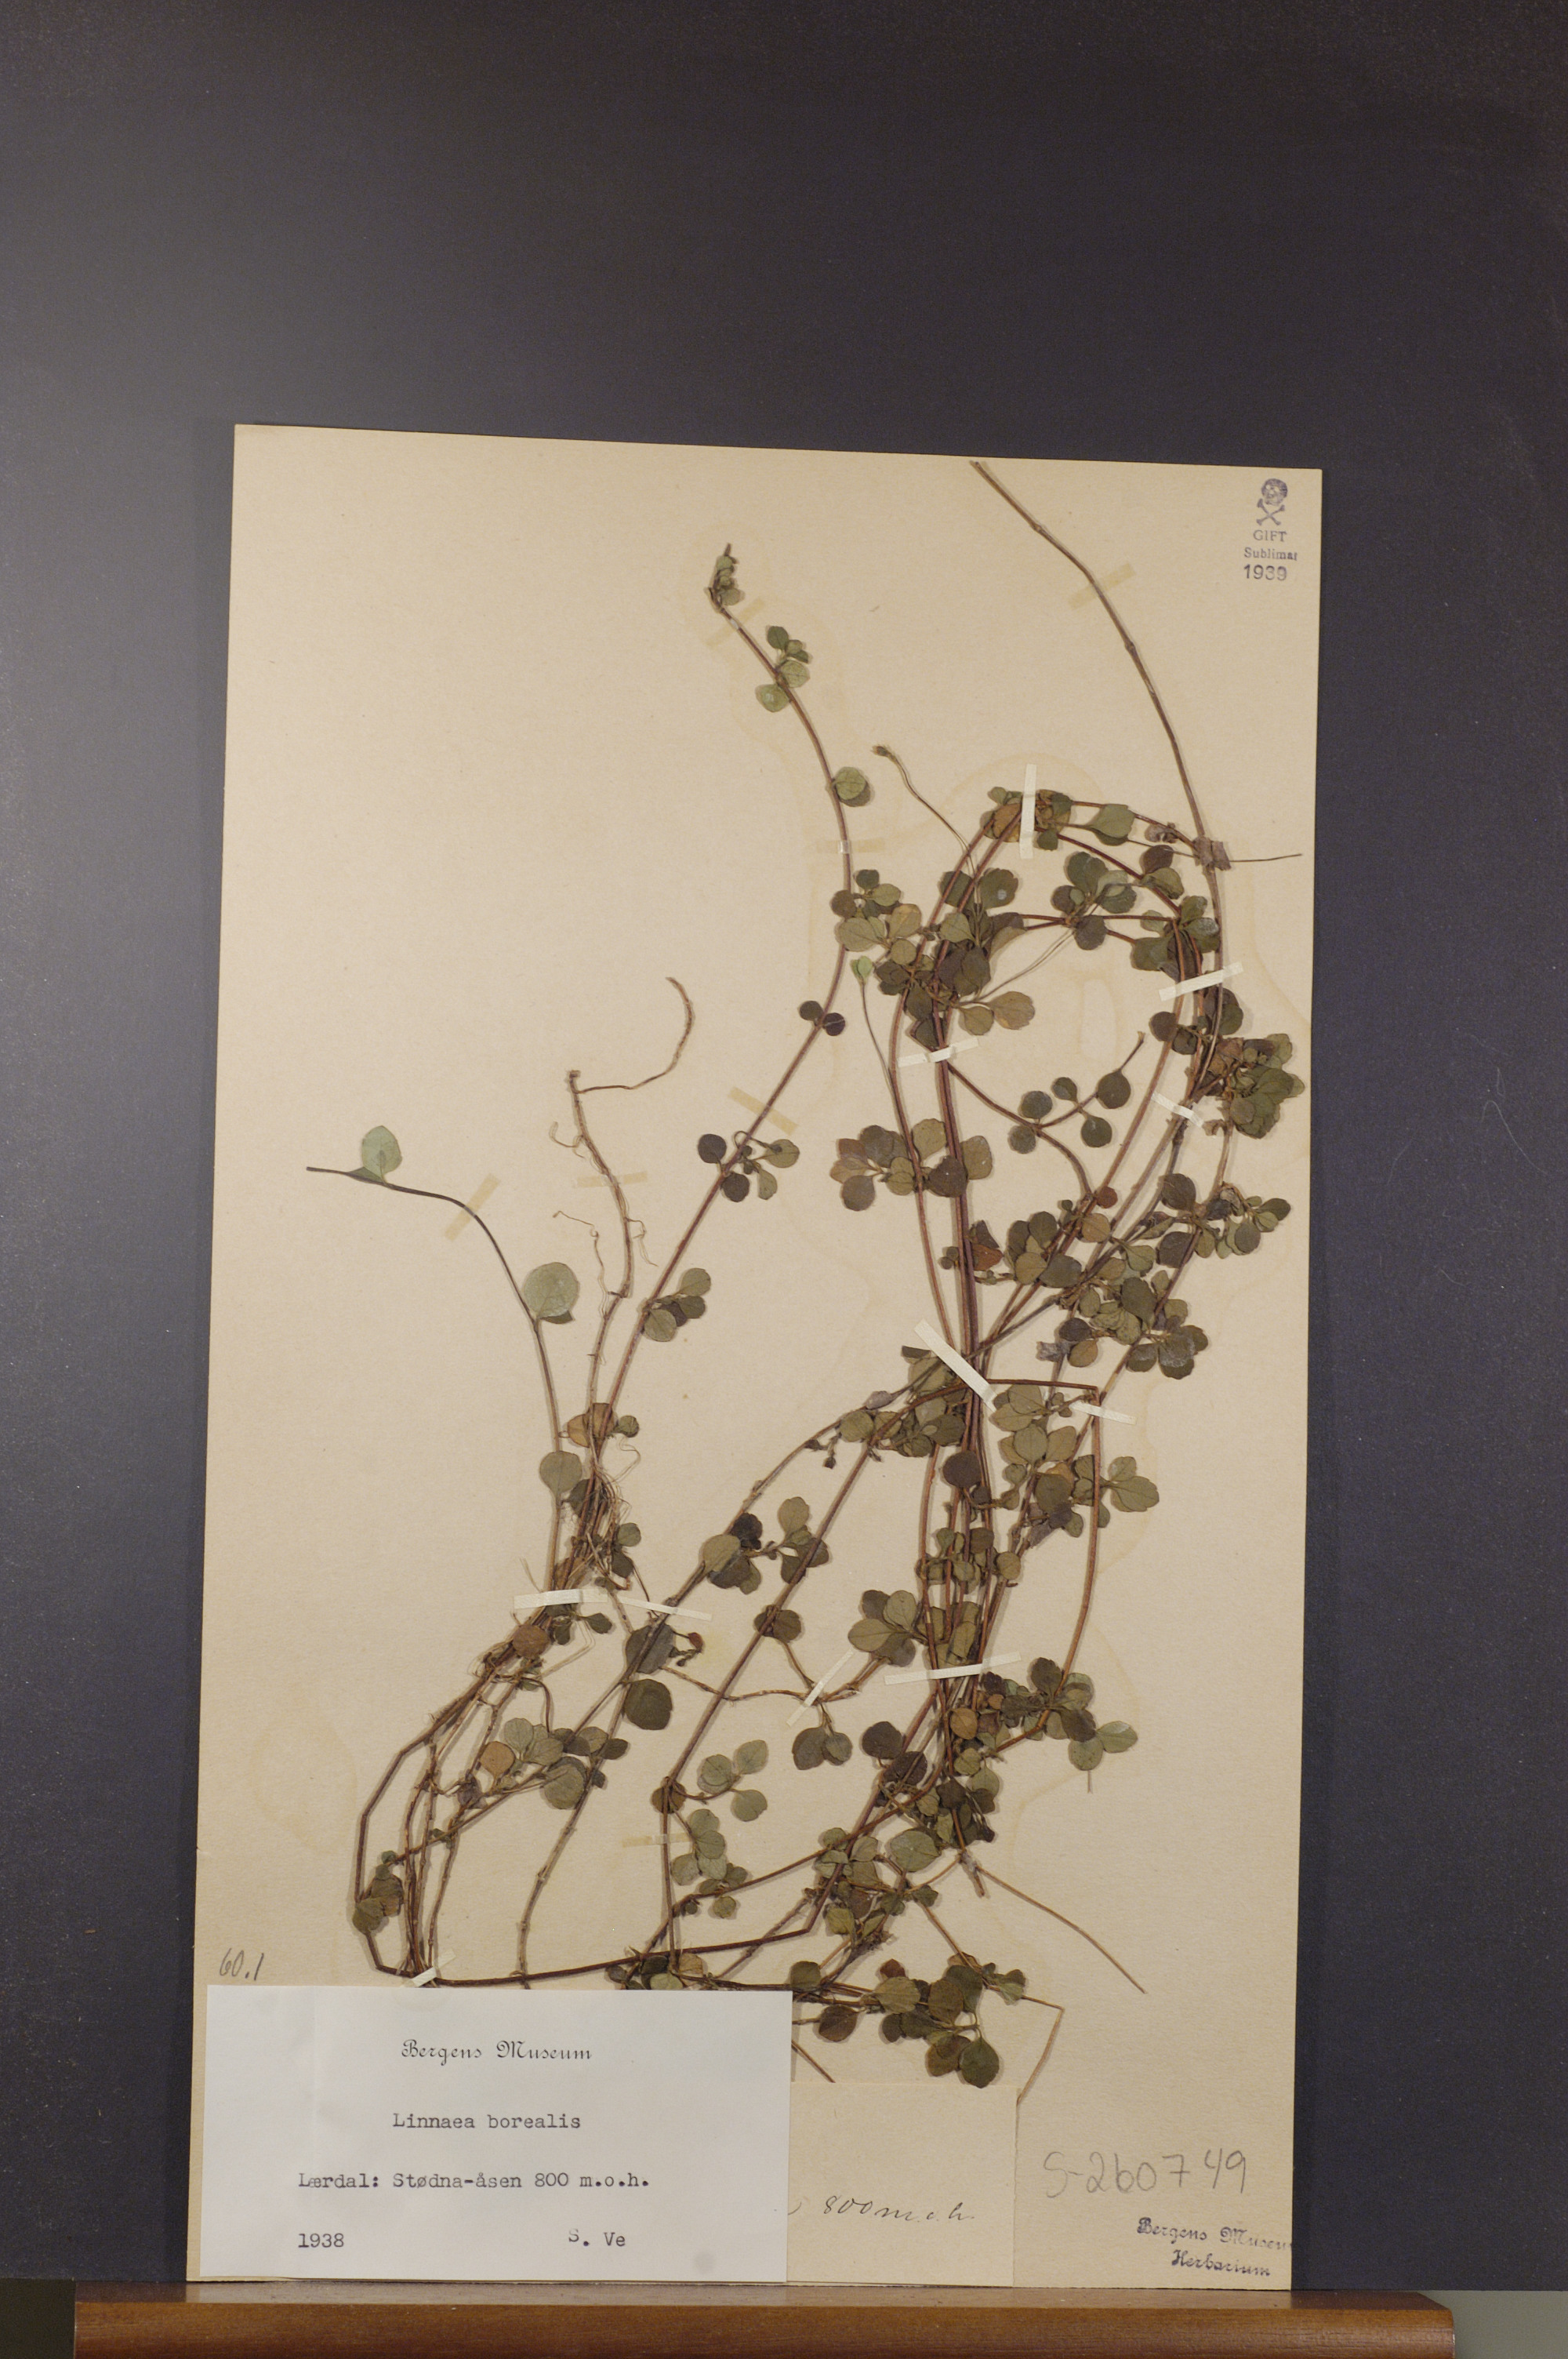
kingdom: Plantae
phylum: Tracheophyta
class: Magnoliopsida
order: Dipsacales
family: Caprifoliaceae
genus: Linnaea
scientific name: Linnaea borealis
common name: Twinflower
